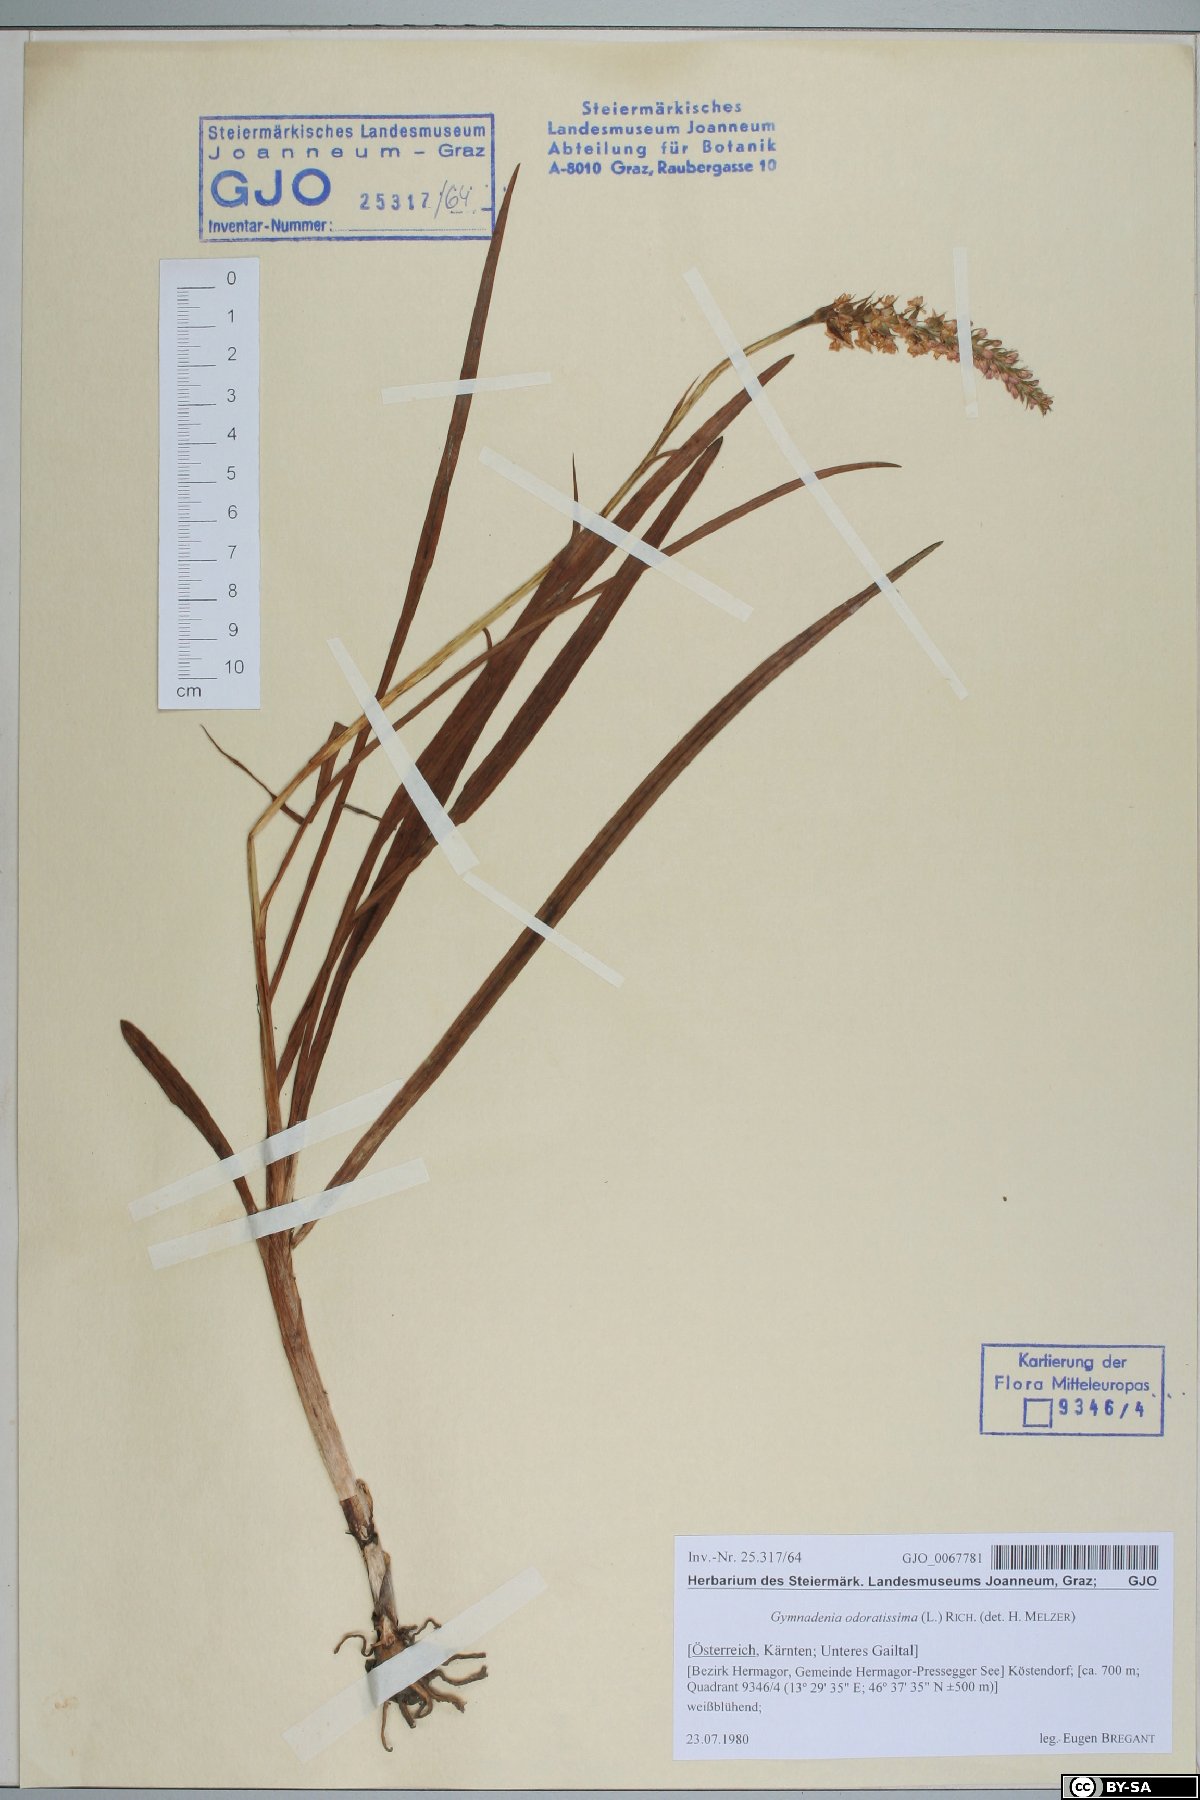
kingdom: Plantae
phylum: Tracheophyta
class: Liliopsida
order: Asparagales
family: Orchidaceae
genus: Gymnadenia
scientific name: Gymnadenia odoratissima
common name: Scented gymnadenia
